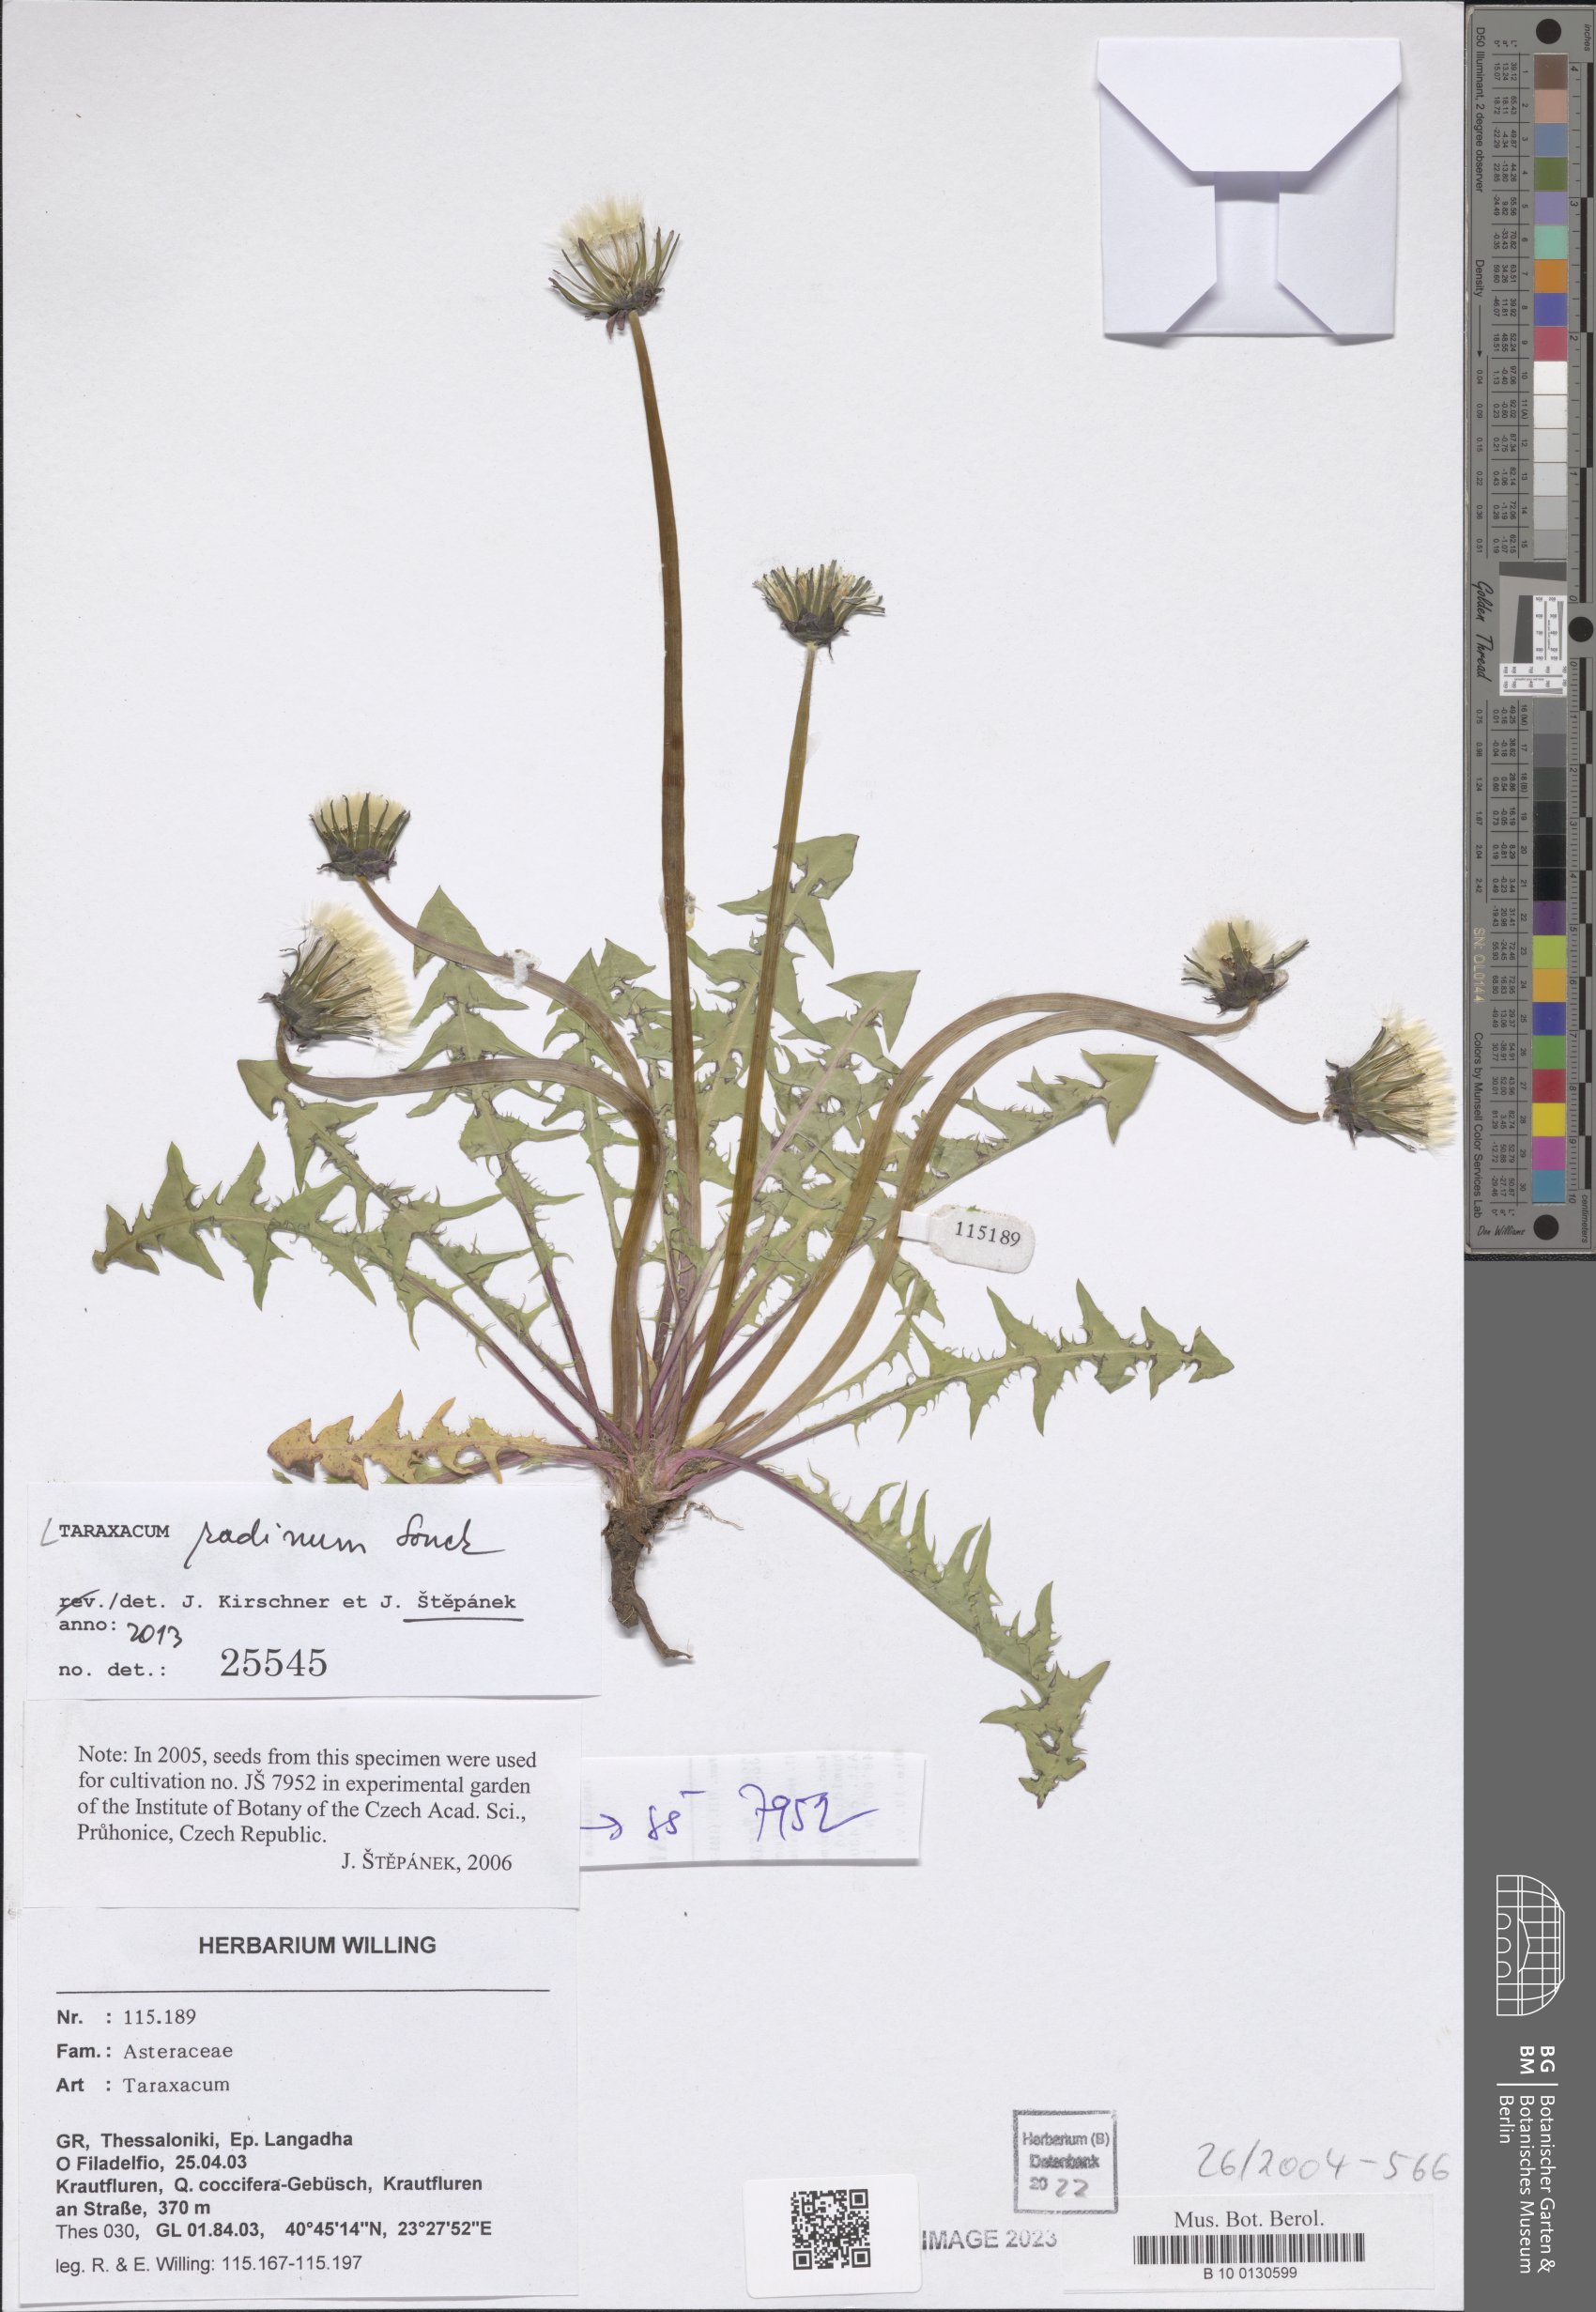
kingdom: Plantae
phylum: Tracheophyta
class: Magnoliopsida
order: Asterales
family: Asteraceae
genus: Taraxacum
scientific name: Taraxacum radinum
